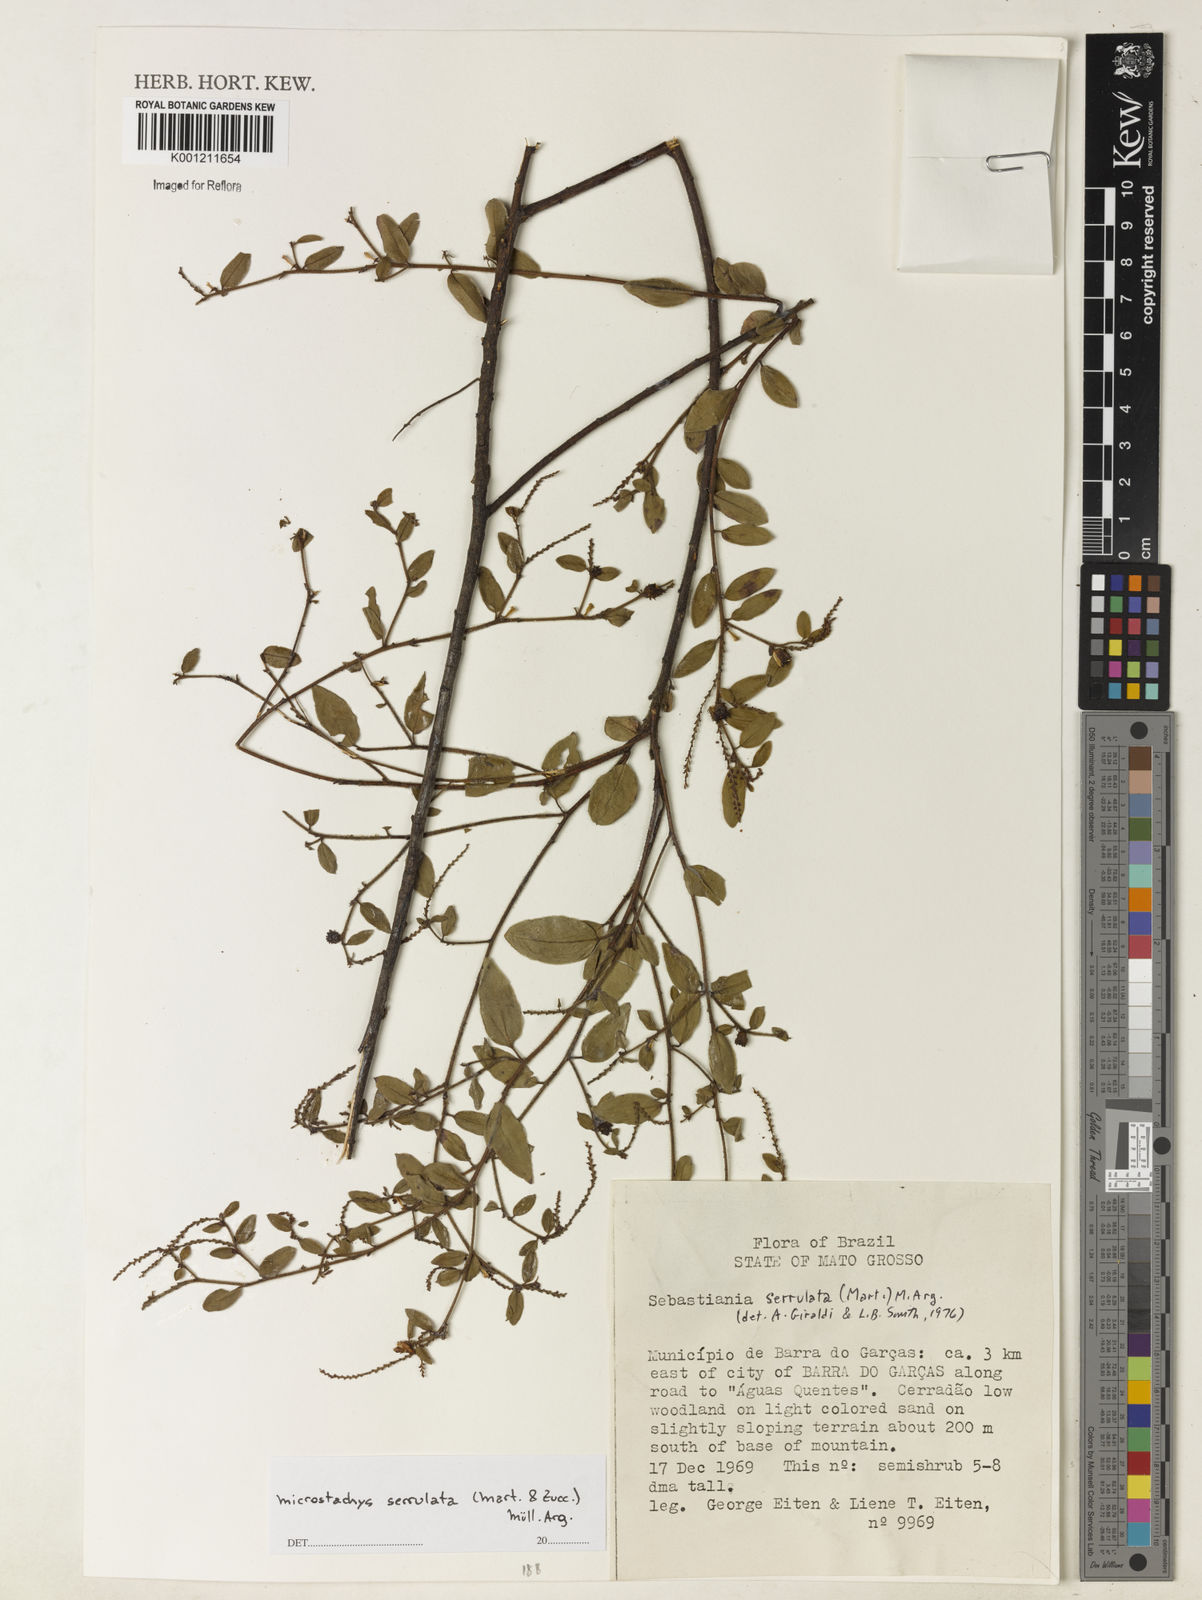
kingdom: Plantae
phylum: Tracheophyta
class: Magnoliopsida
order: Malpighiales
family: Euphorbiaceae
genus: Microstachys
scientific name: Microstachys
